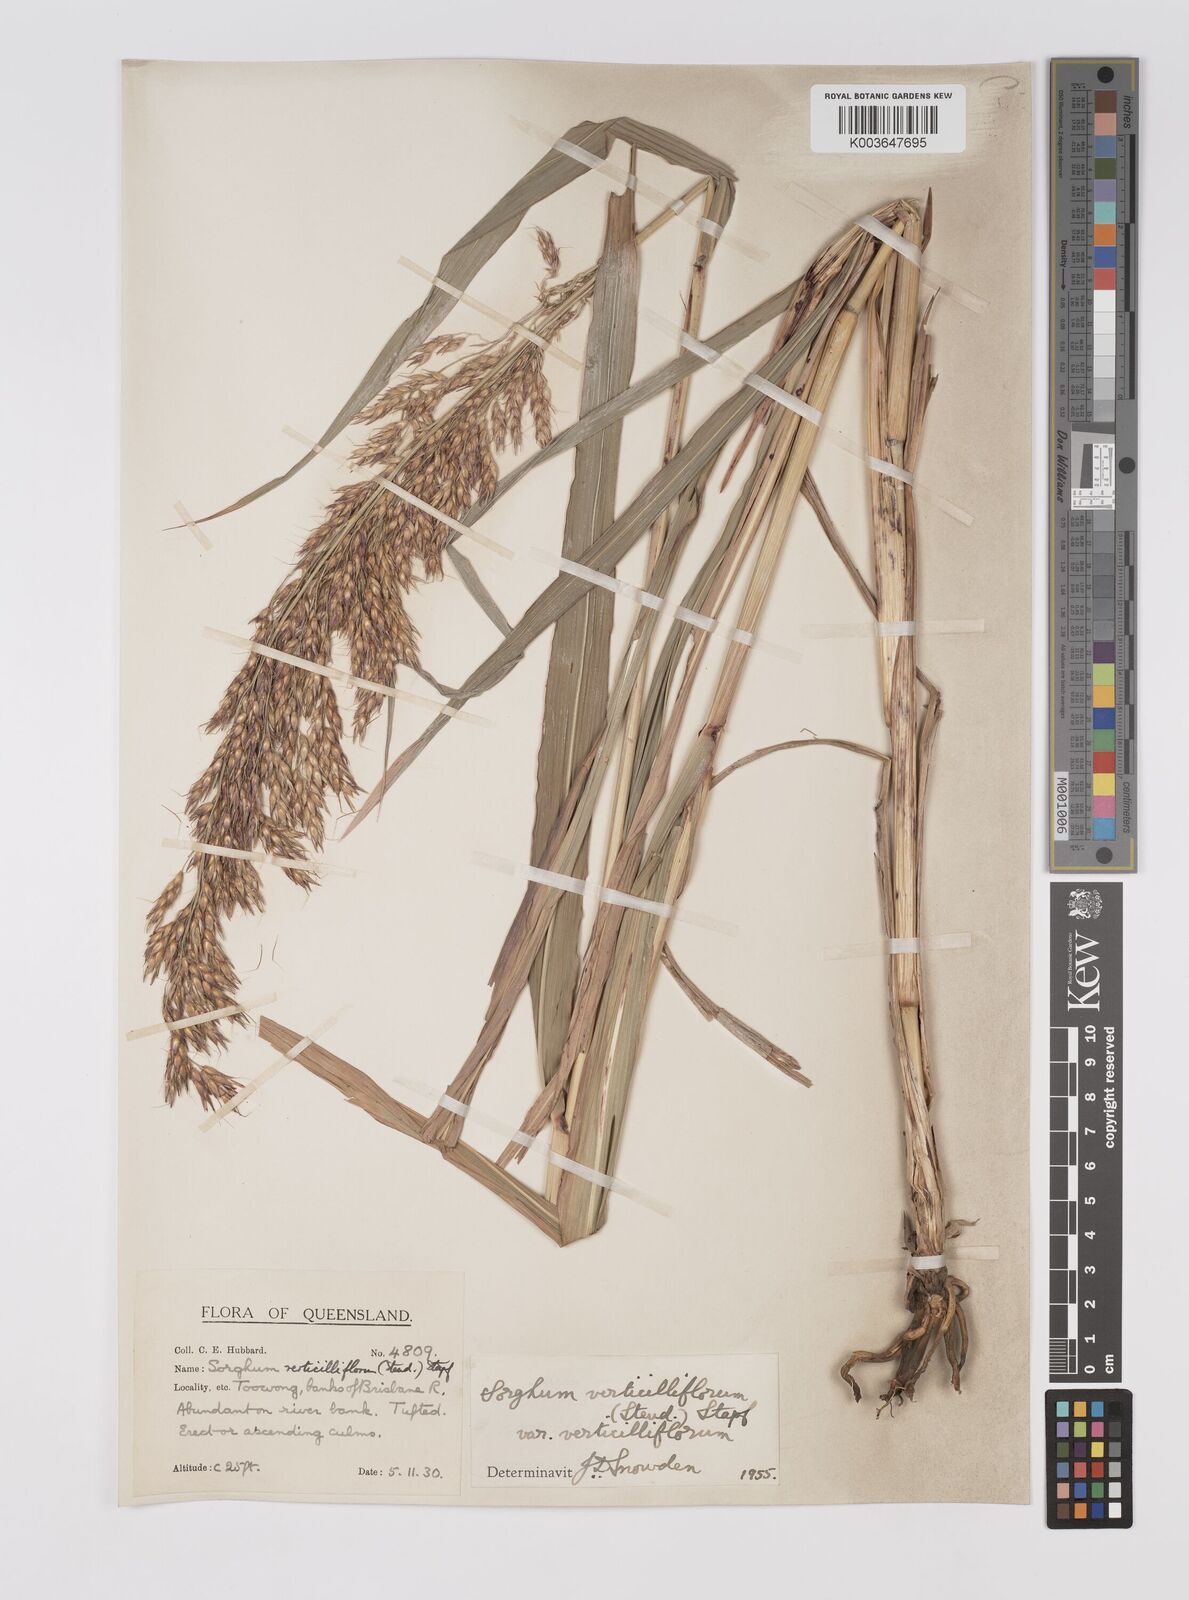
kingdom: Plantae
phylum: Tracheophyta
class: Liliopsida
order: Poales
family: Poaceae
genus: Sorghum
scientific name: Sorghum arundinaceum
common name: Sorghum
